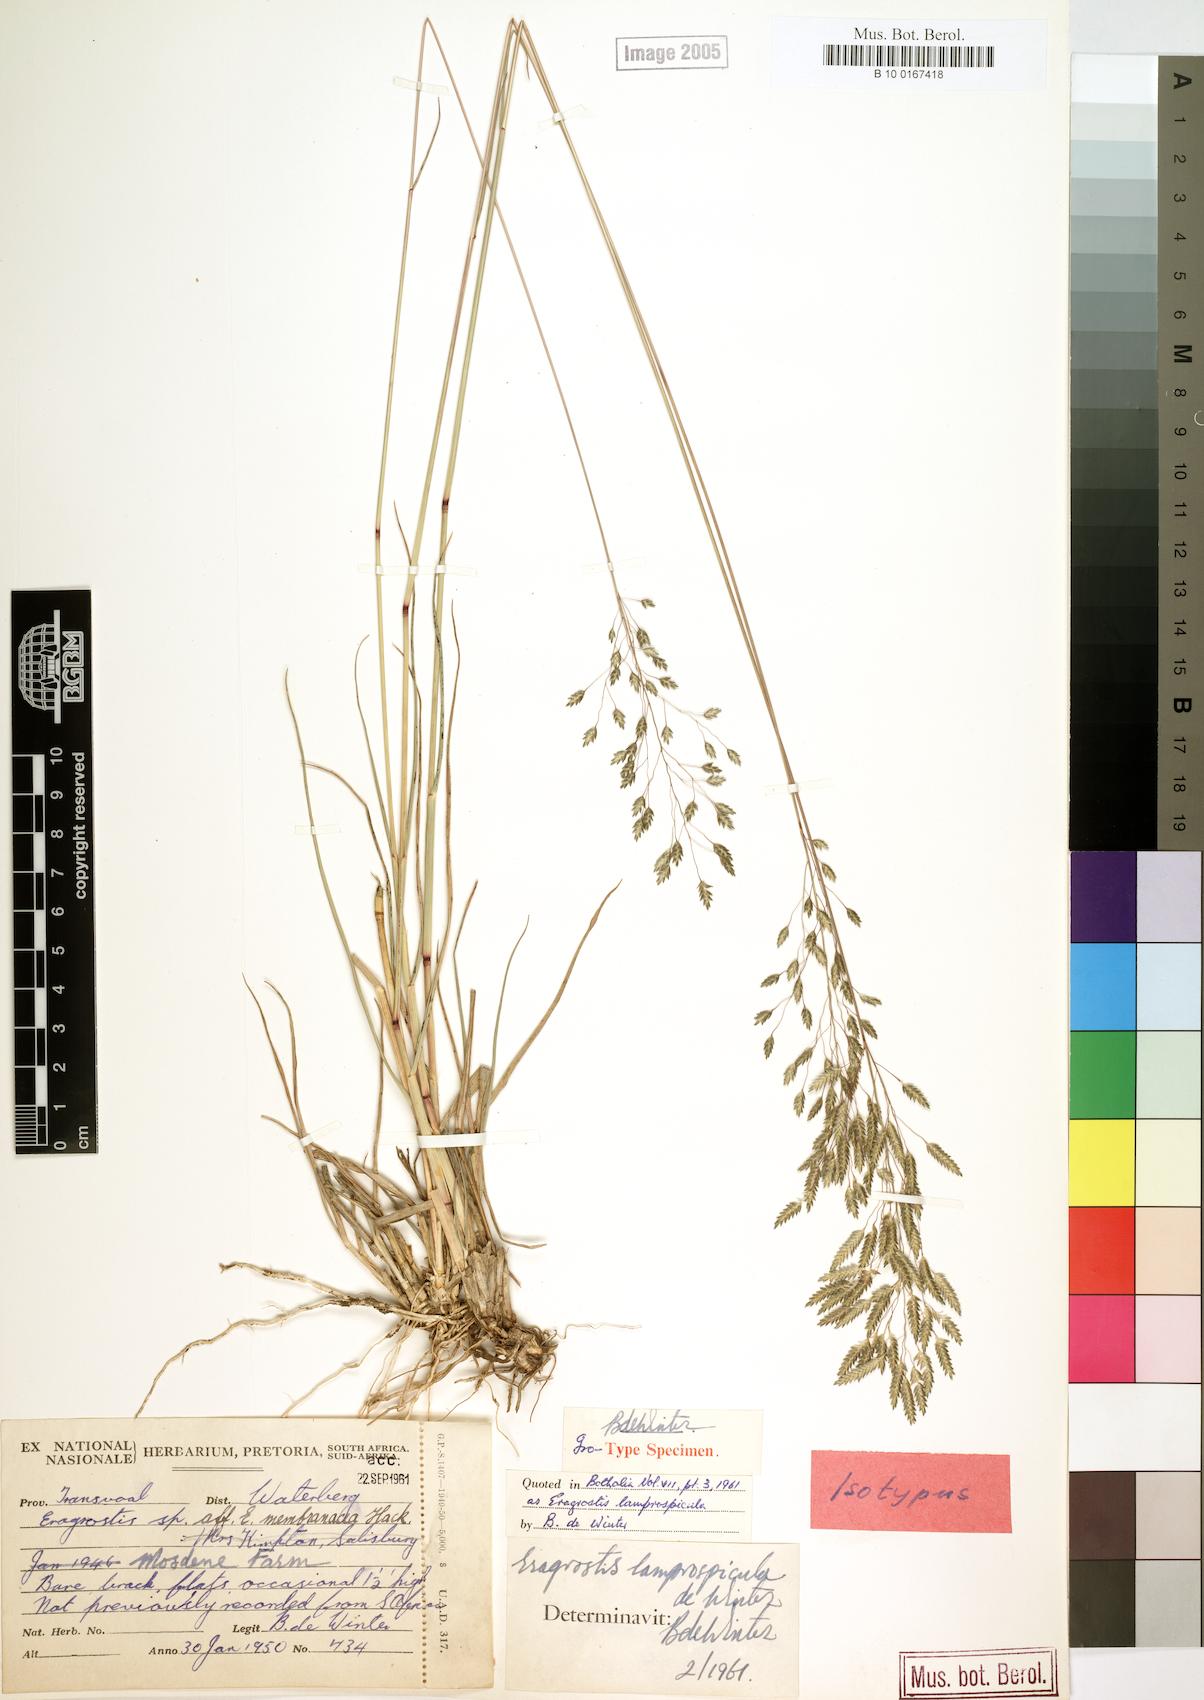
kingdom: Plantae
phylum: Tracheophyta
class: Liliopsida
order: Poales
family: Poaceae
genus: Eragrostis
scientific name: Eragrostis patentipilosa
